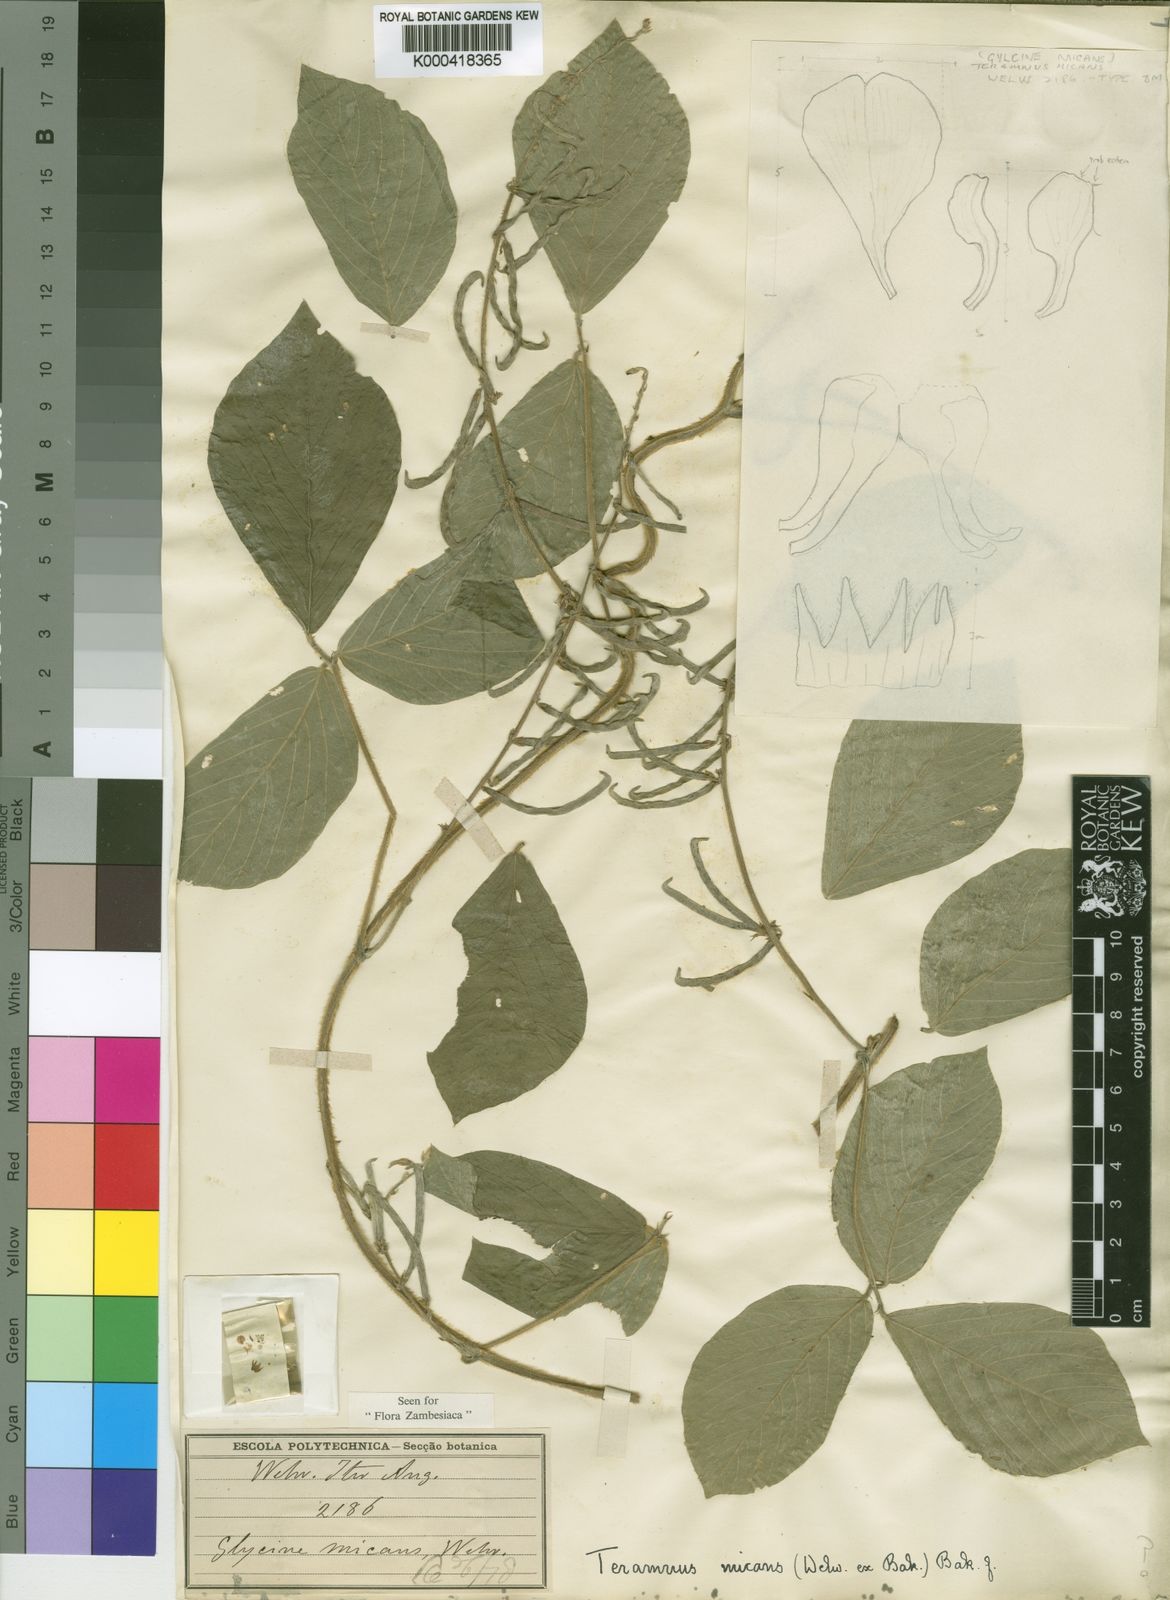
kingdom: Plantae
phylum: Tracheophyta
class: Magnoliopsida
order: Fabales
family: Fabaceae
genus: Teramnus
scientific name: Teramnus micans
